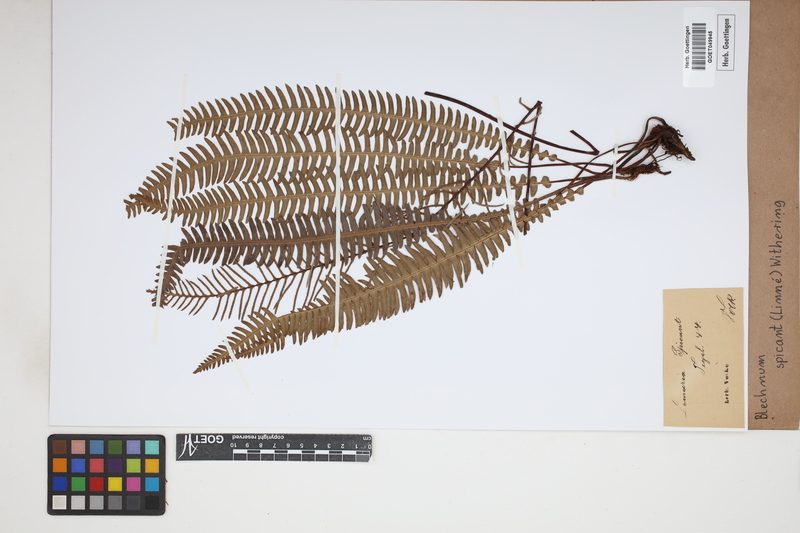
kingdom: Plantae
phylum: Tracheophyta
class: Polypodiopsida
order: Polypodiales
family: Blechnaceae
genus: Struthiopteris
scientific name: Struthiopteris spicant
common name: Deer fern
